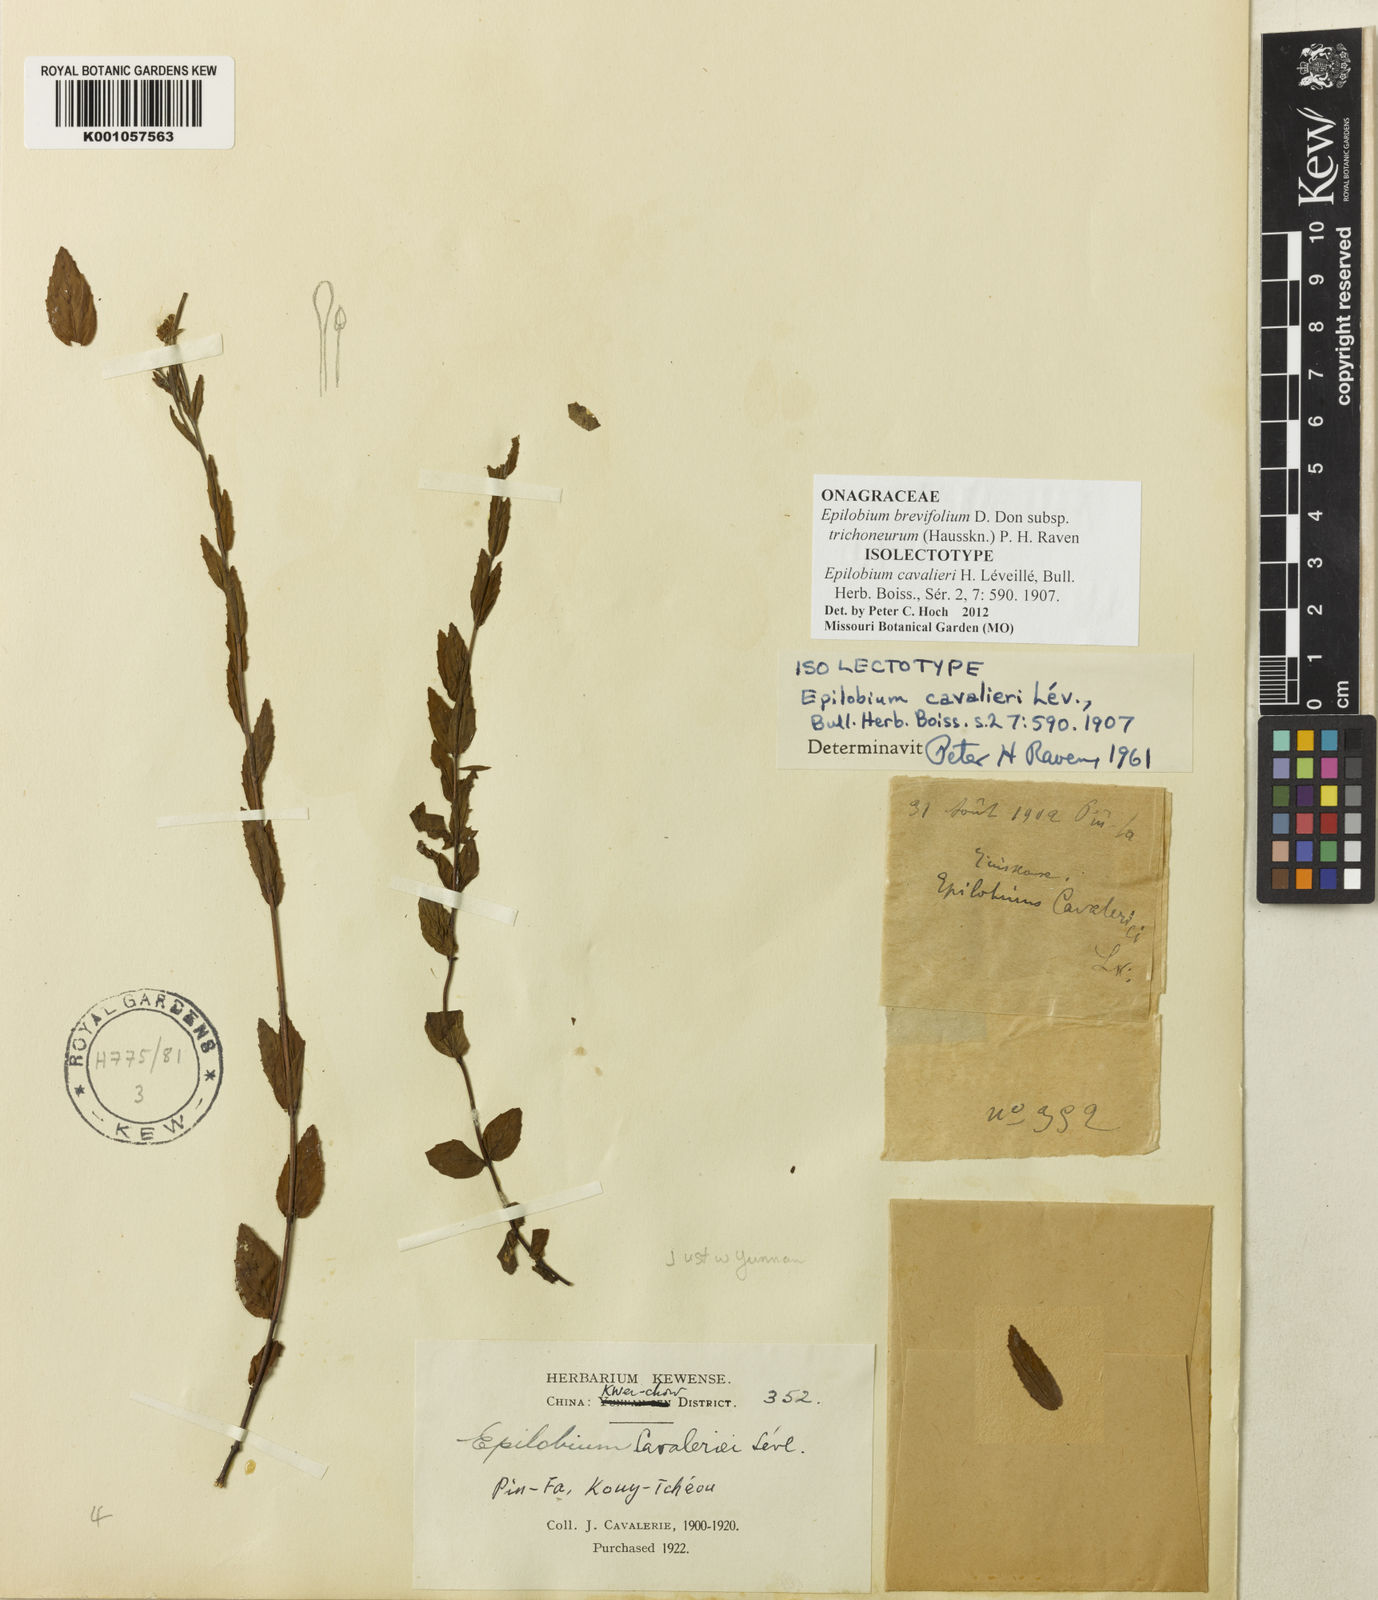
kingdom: Plantae
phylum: Tracheophyta
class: Magnoliopsida
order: Myrtales
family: Onagraceae
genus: Epilobium
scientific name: Epilobium brevifolium
